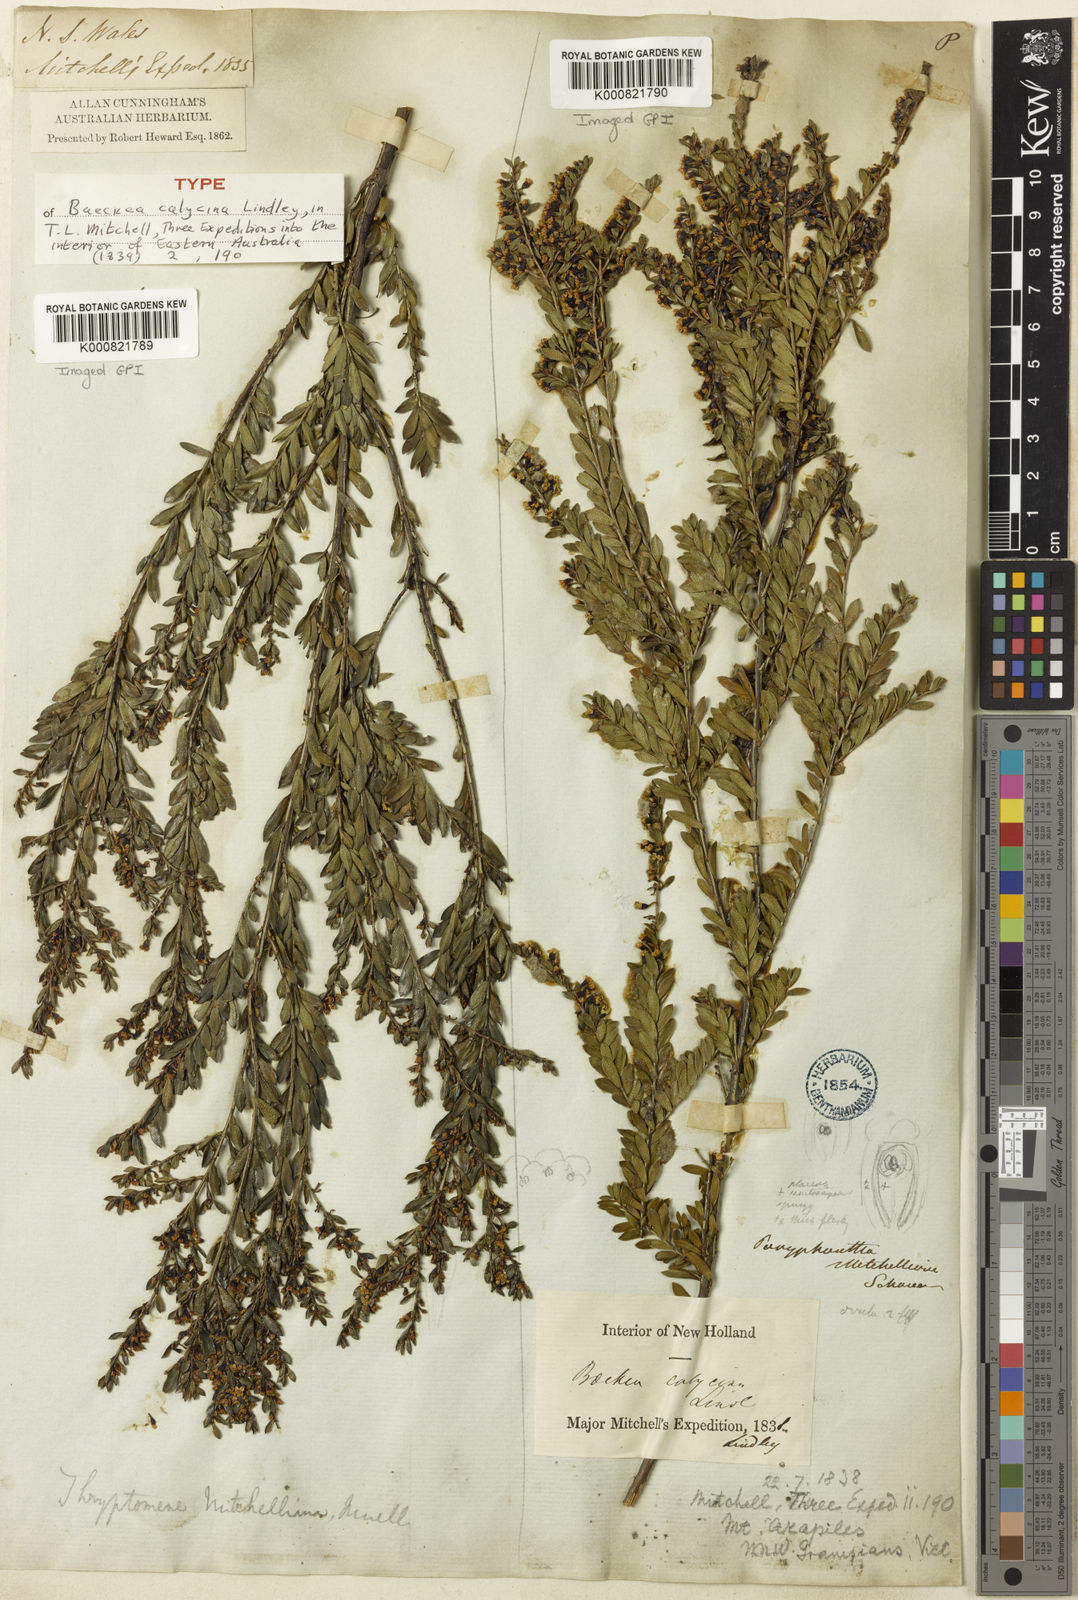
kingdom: Plantae
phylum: Tracheophyta
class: Magnoliopsida
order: Myrtales
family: Myrtaceae
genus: Thryptomene
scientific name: Thryptomene calycina
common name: Grampians thryptomene
